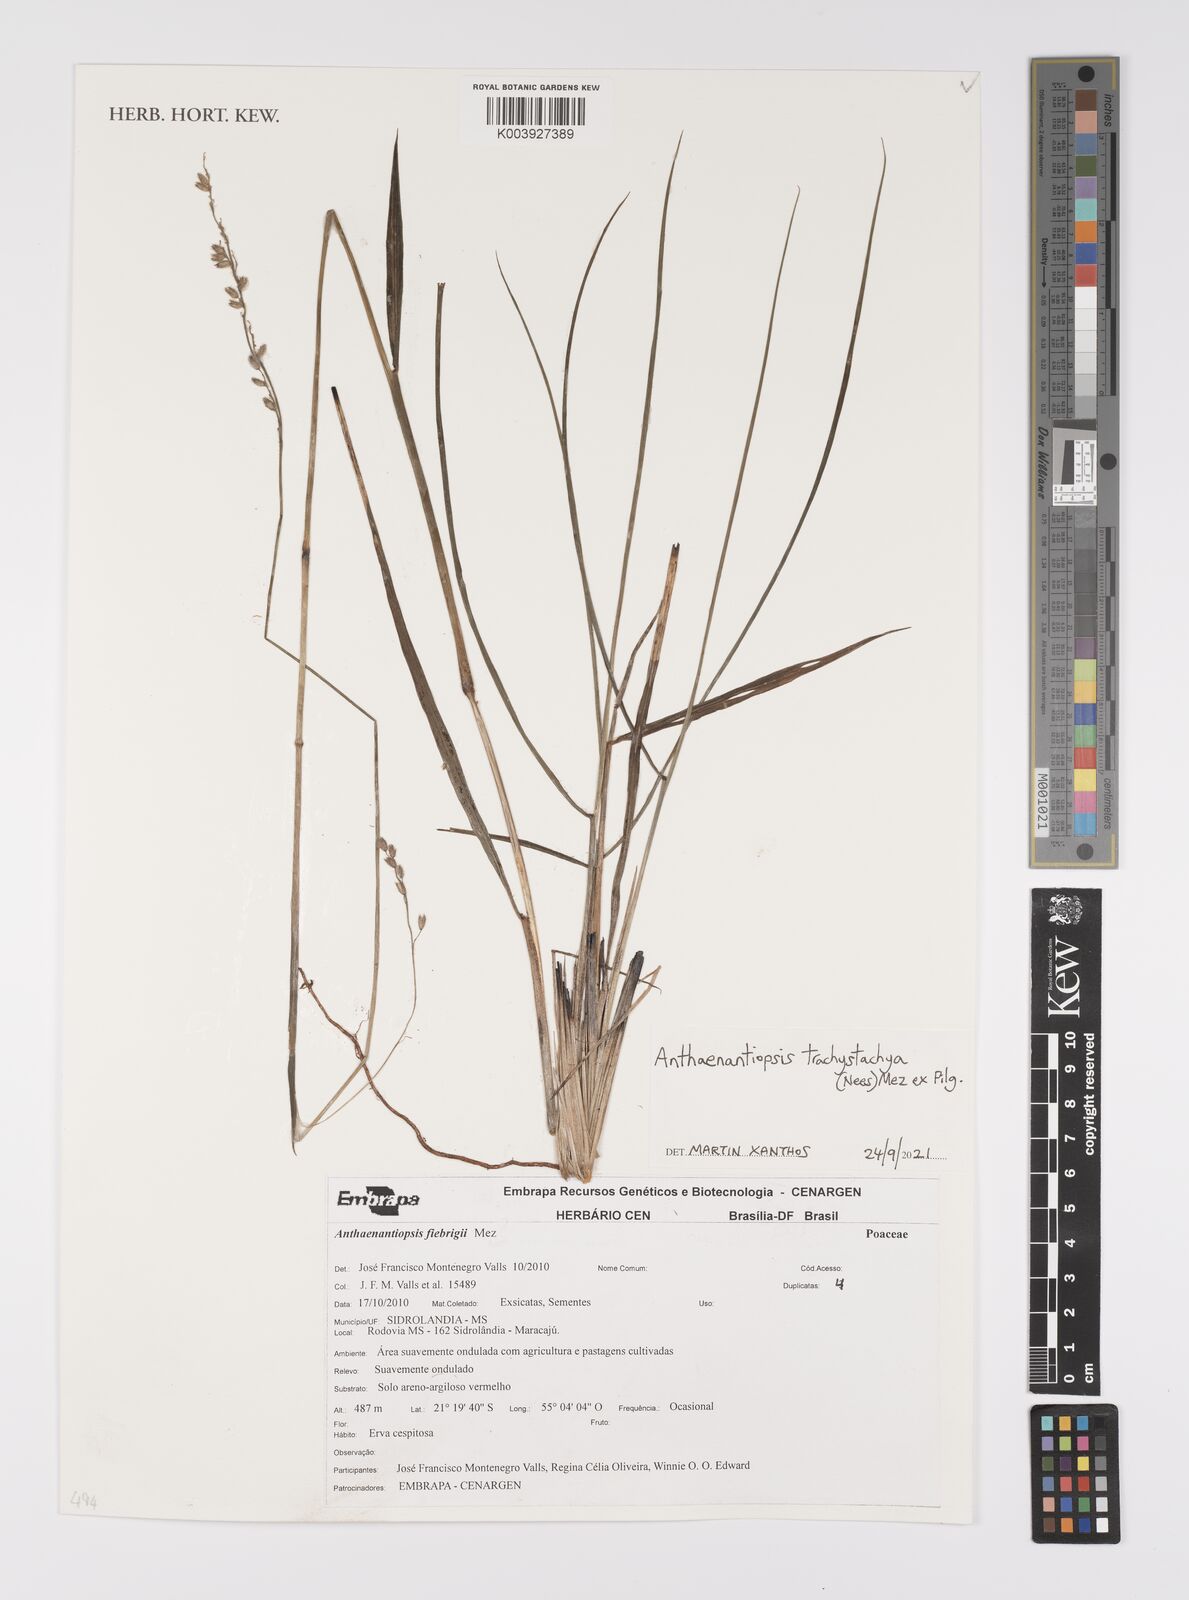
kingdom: Plantae
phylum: Tracheophyta
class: Liliopsida
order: Poales
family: Poaceae
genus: Anthaenantiopsis
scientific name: Anthaenantiopsis trachystachya
